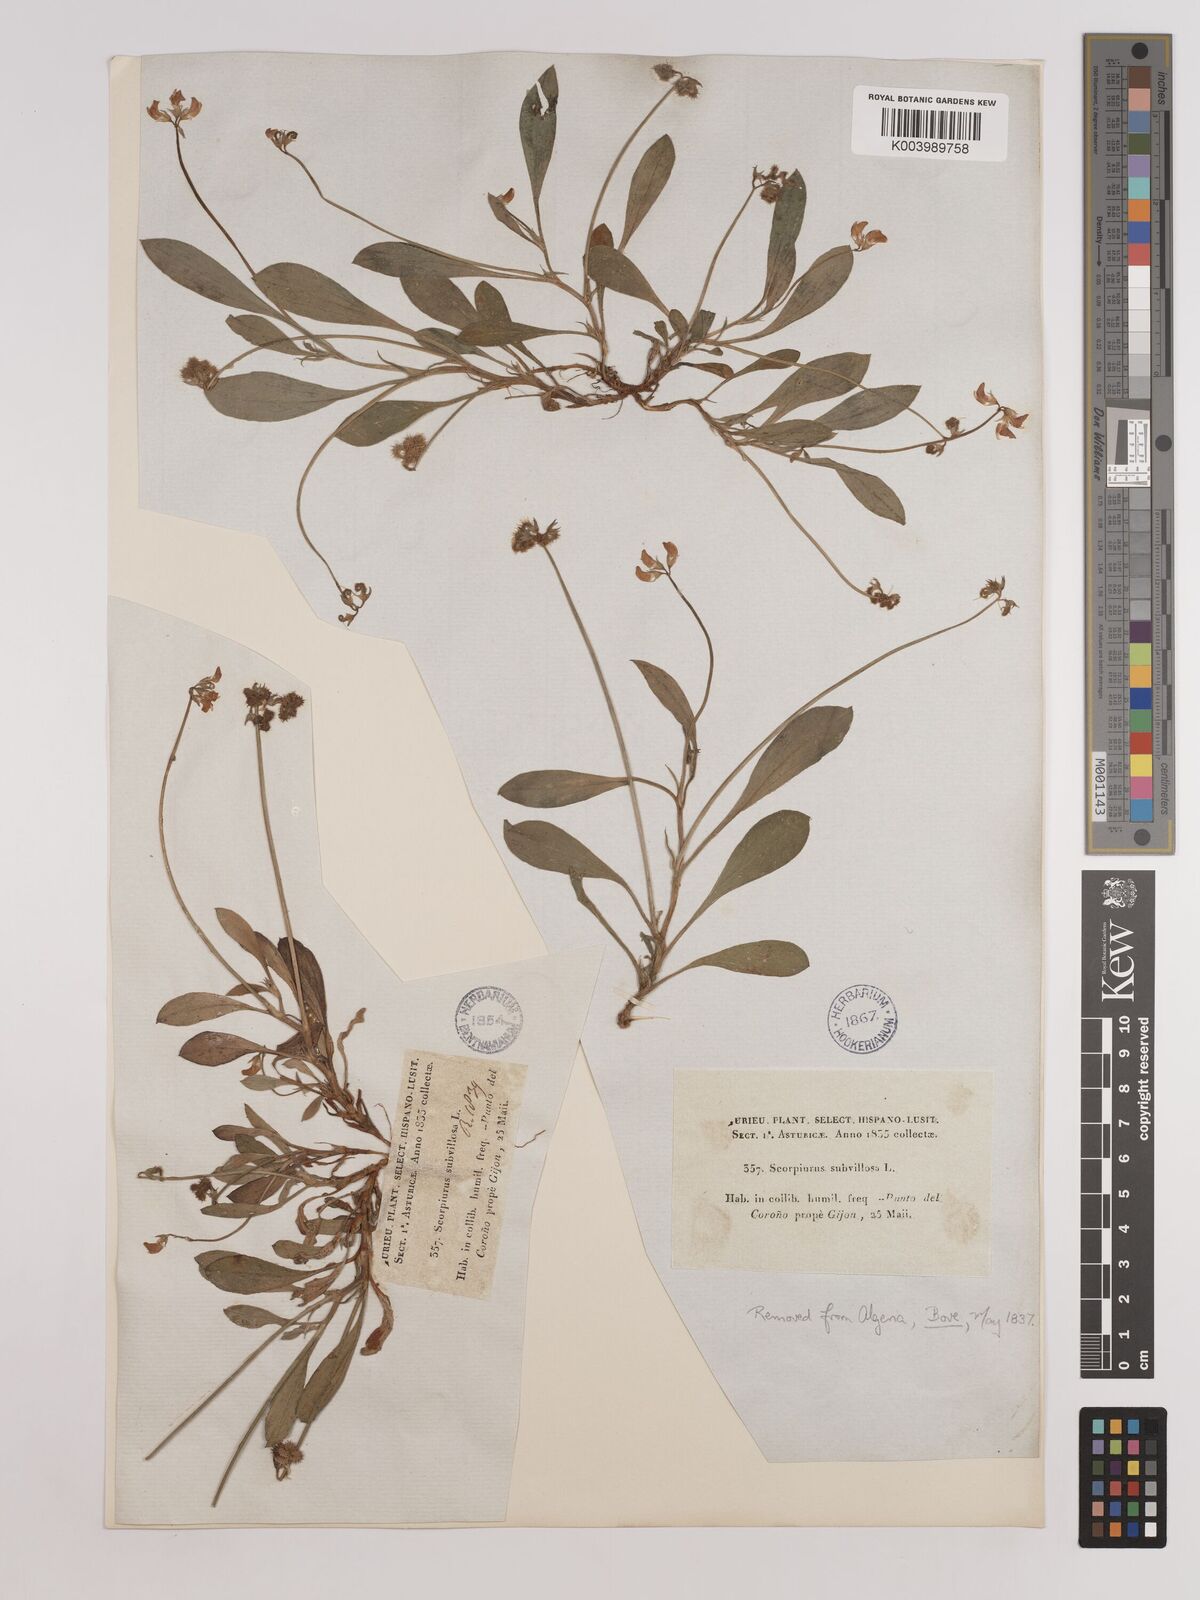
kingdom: Plantae
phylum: Tracheophyta
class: Magnoliopsida
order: Fabales
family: Fabaceae
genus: Scorpiurus
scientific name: Scorpiurus muricatus
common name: Caterpillar-plant
